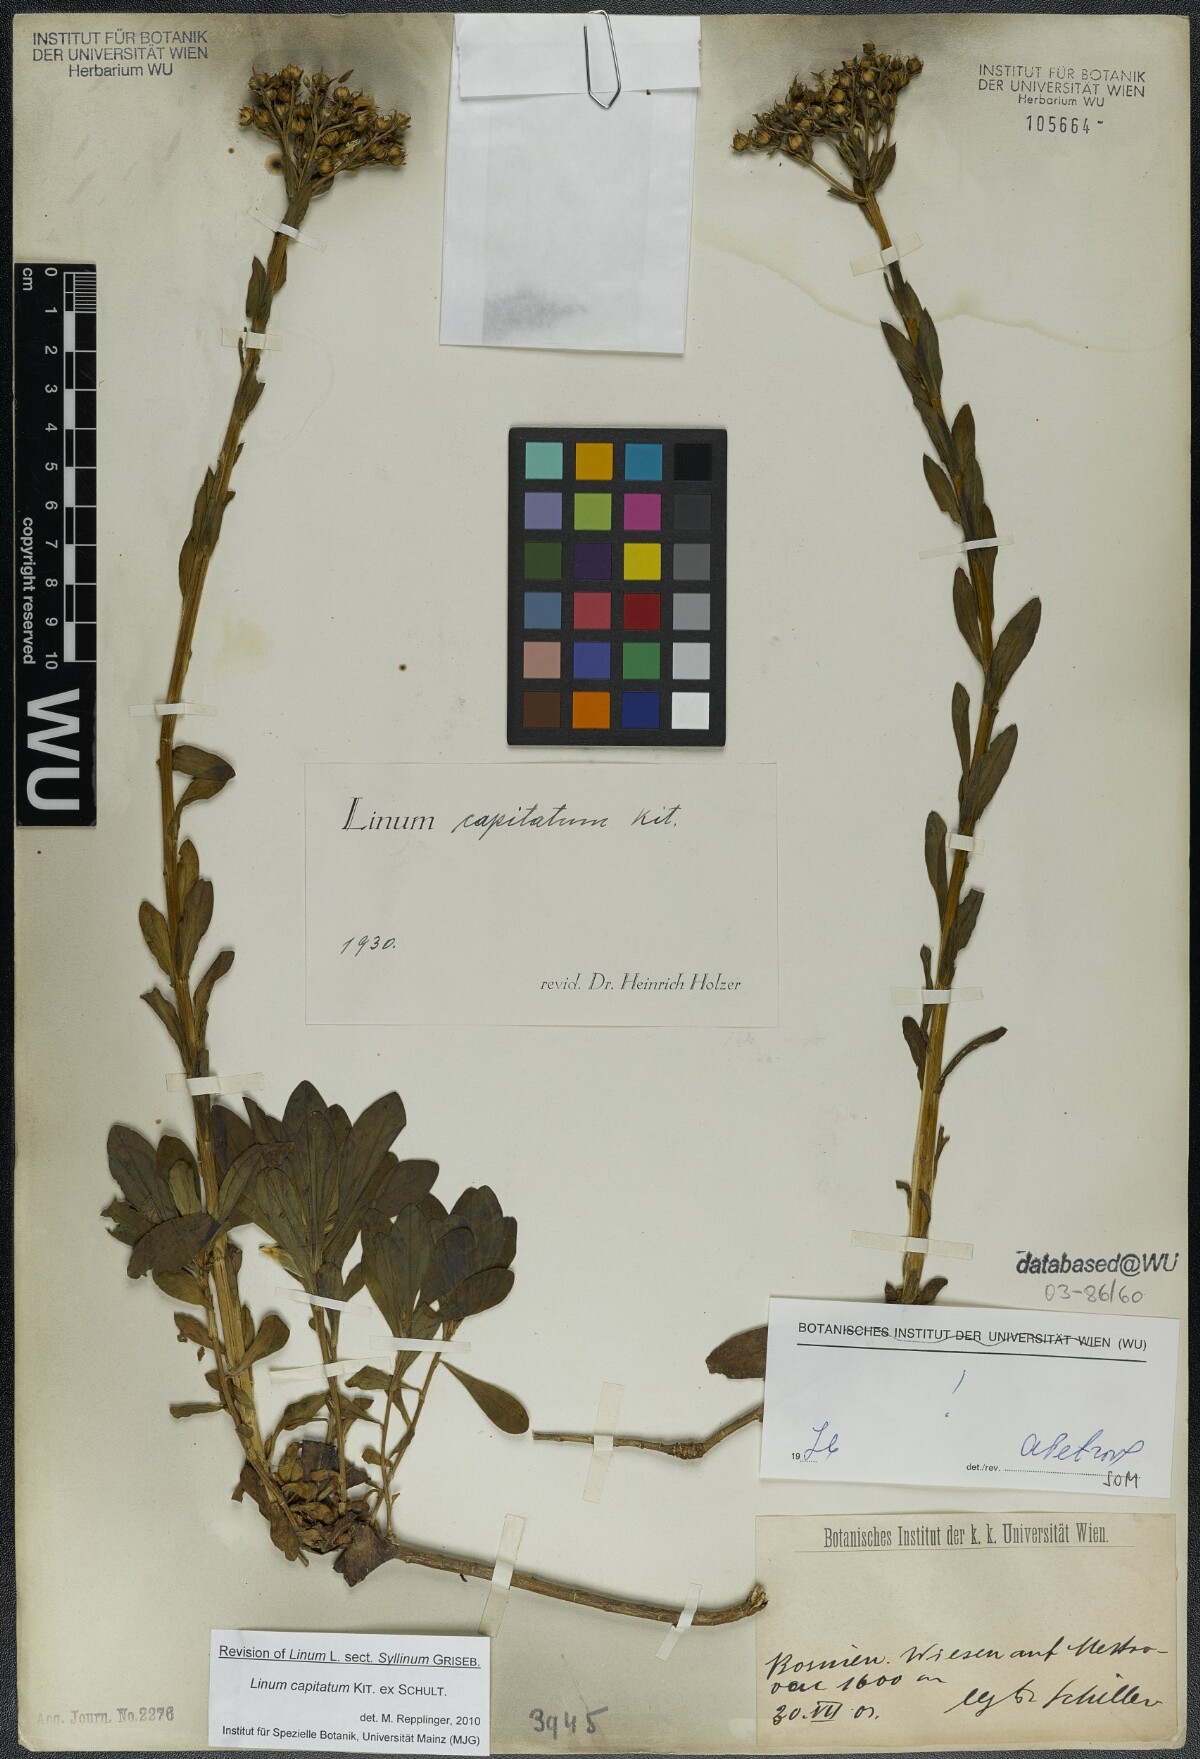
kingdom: Plantae
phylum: Tracheophyta
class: Magnoliopsida
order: Malpighiales
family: Linaceae
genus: Linum
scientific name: Linum capitatum
